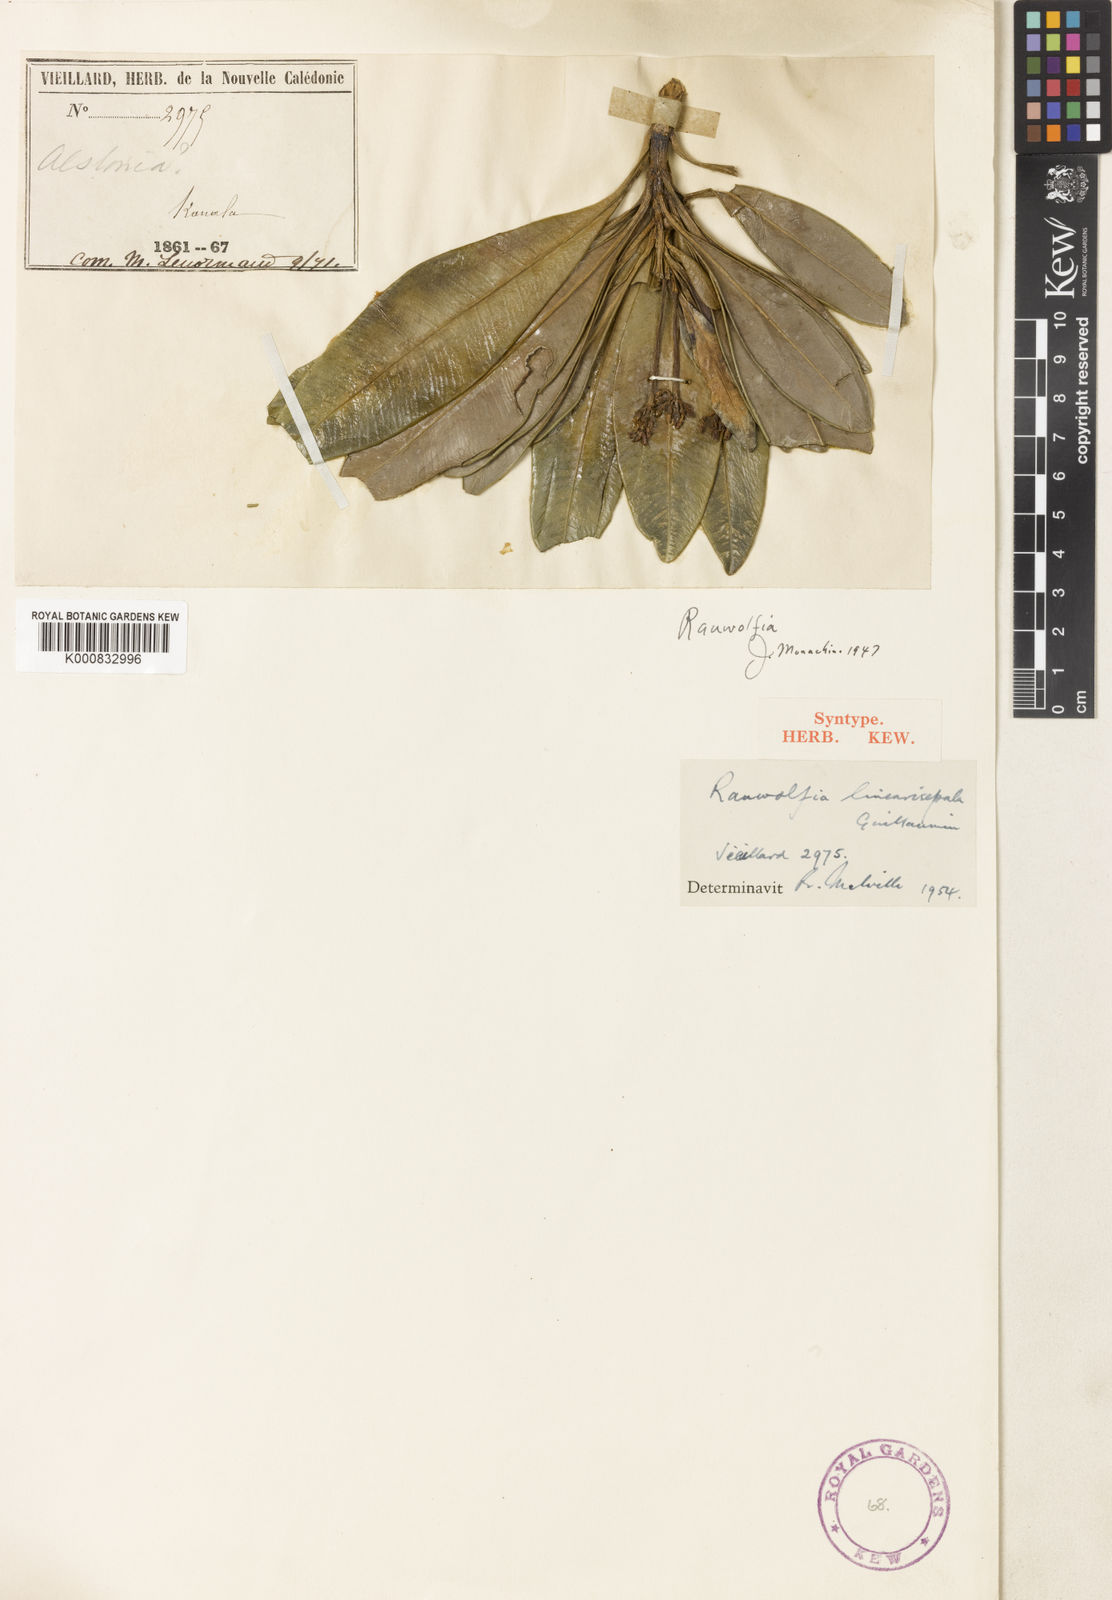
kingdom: Plantae
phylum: Tracheophyta
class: Magnoliopsida
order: Gentianales
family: Apocynaceae
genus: Rauvolfia
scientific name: Rauvolfia balansae
